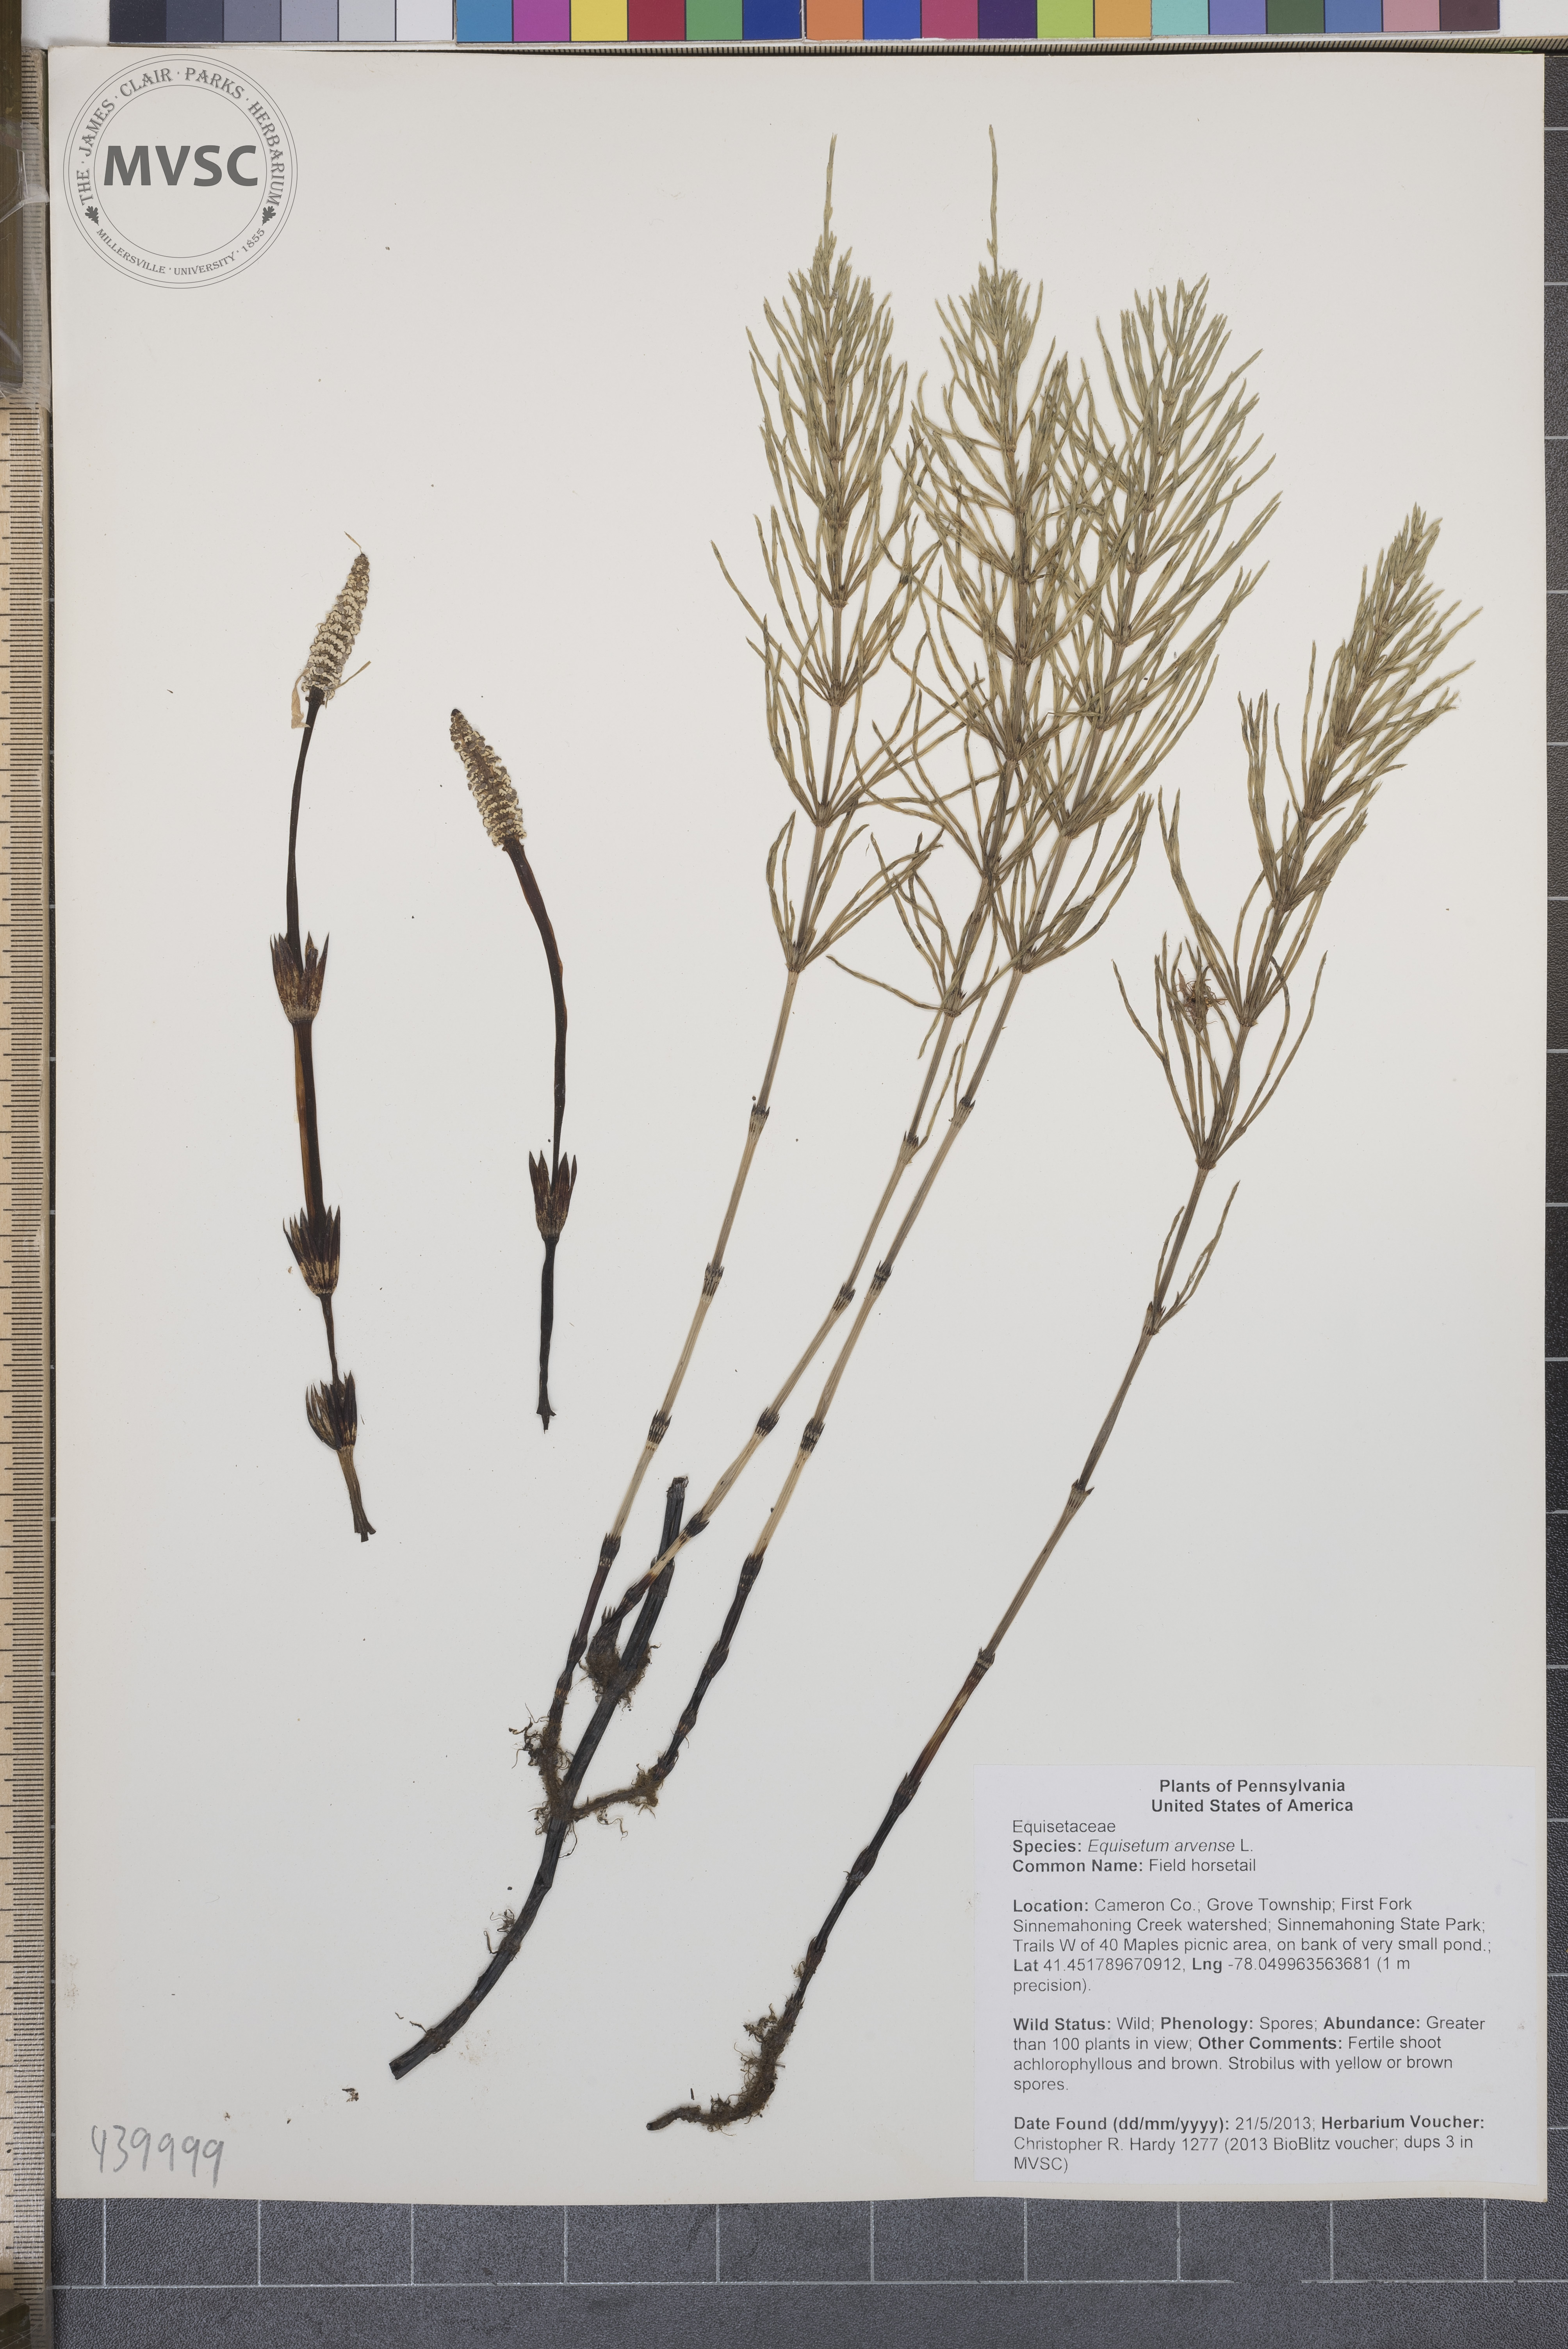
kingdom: Plantae
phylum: Tracheophyta
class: Polypodiopsida
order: Equisetales
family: Equisetaceae
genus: Equisetum
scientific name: Equisetum arvense
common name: Field horsetail
